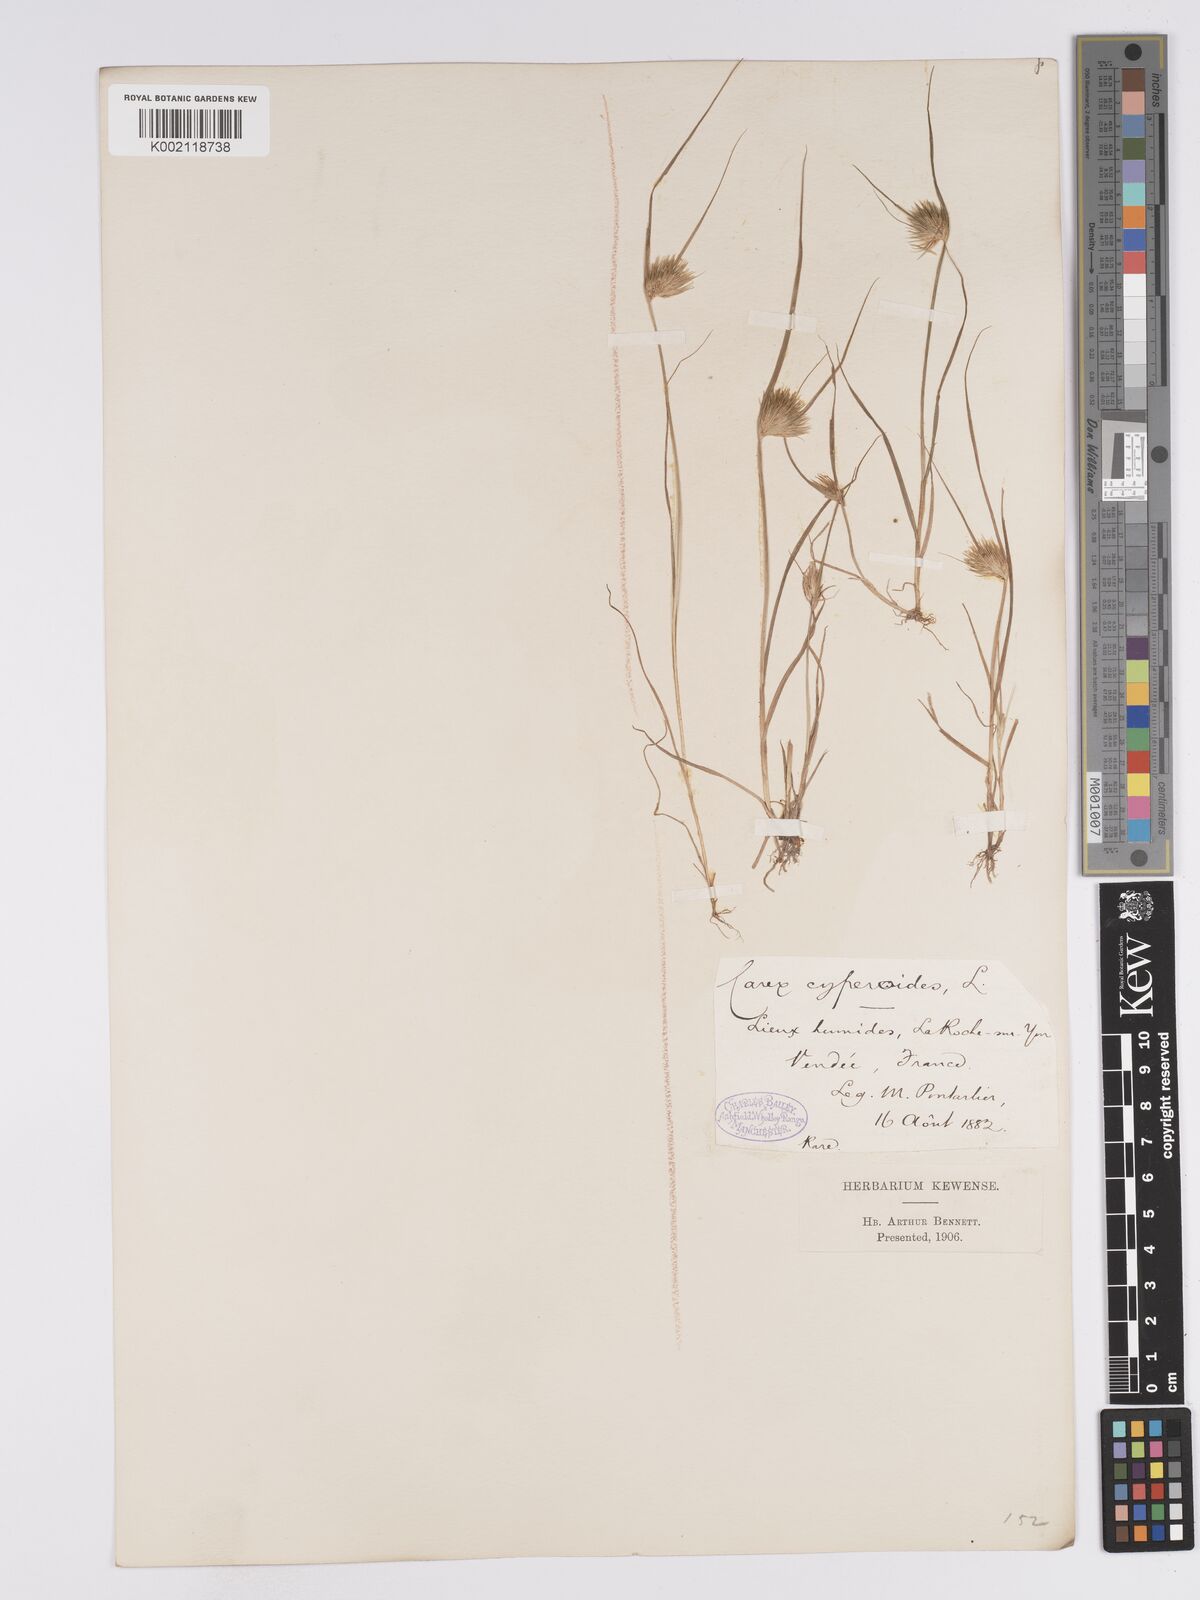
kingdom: Plantae
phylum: Tracheophyta
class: Liliopsida
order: Poales
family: Cyperaceae
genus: Carex
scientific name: Carex bohemica
